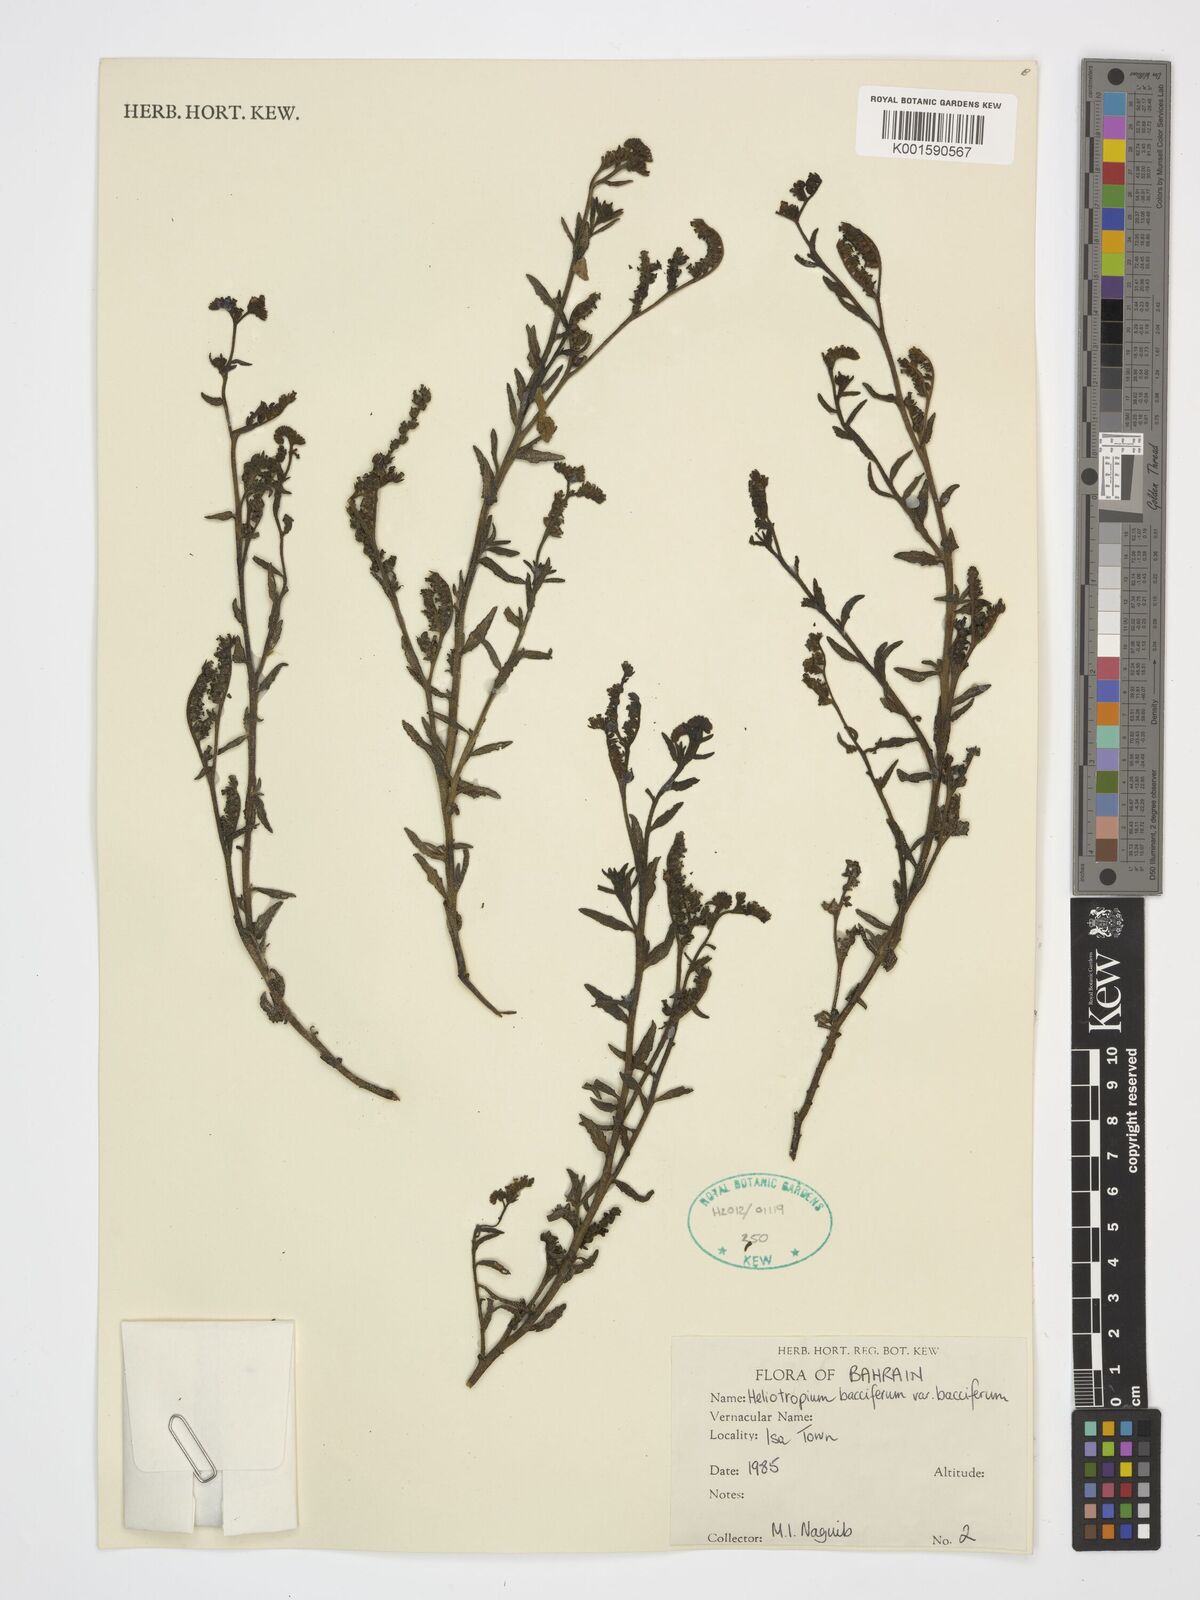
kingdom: Plantae
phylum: Tracheophyta
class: Magnoliopsida
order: Boraginales
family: Heliotropiaceae
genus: Heliotropium
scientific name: Heliotropium bacciferum
